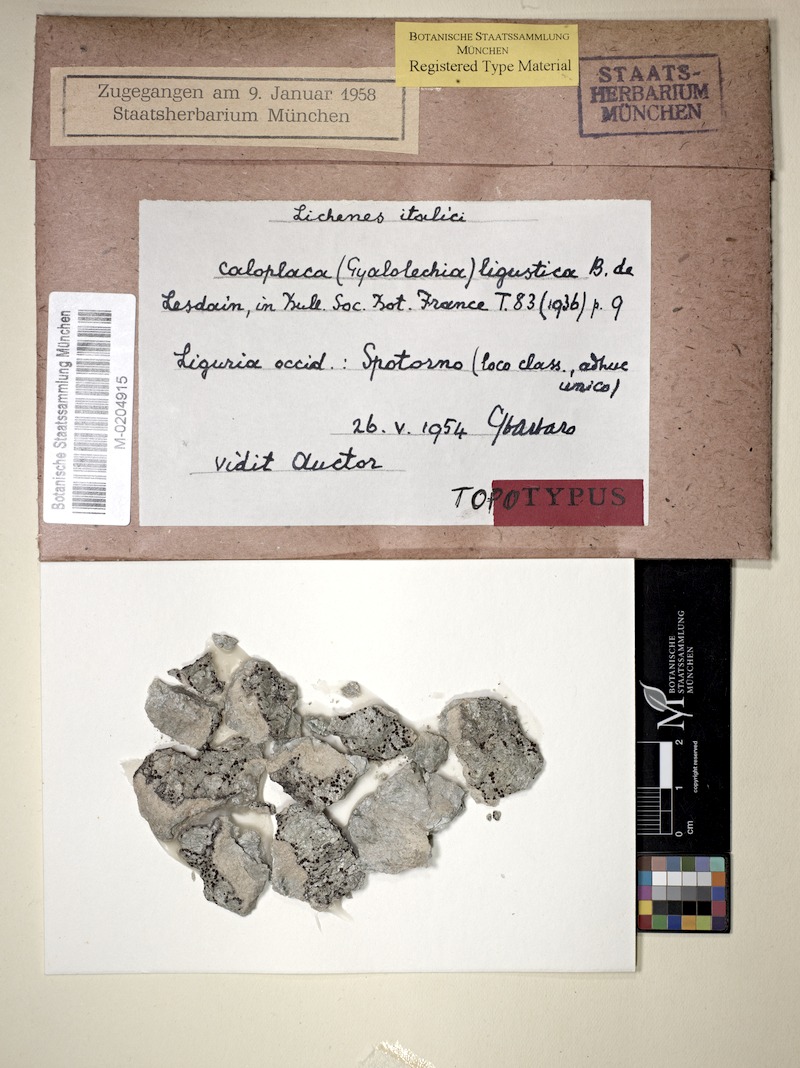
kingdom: Fungi
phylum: Ascomycota
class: Lecanoromycetes
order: Teloschistales
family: Teloschistaceae
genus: Caloplaca
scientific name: Caloplaca ligustica
